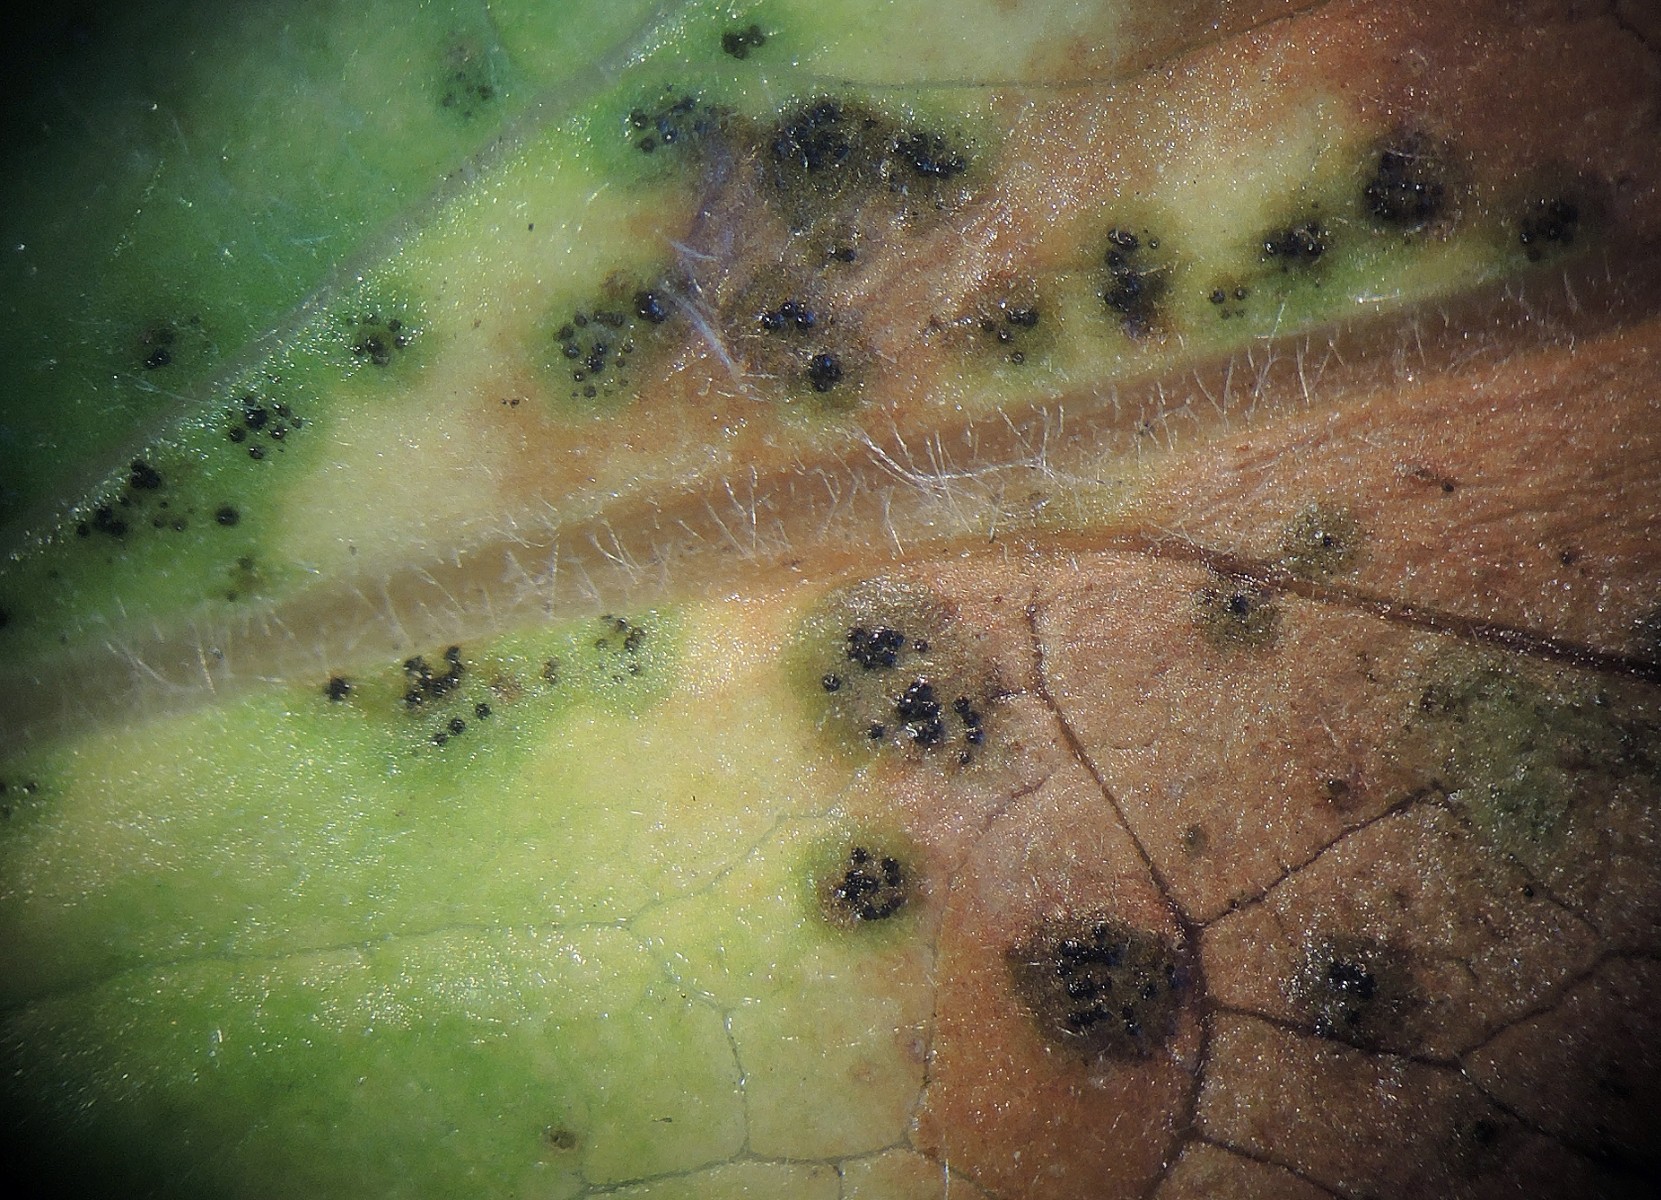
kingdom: Fungi
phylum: Ascomycota
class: Dothideomycetes
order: Venturiales
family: Venturiaceae
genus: Venturia
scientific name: Venturia maculiformis
